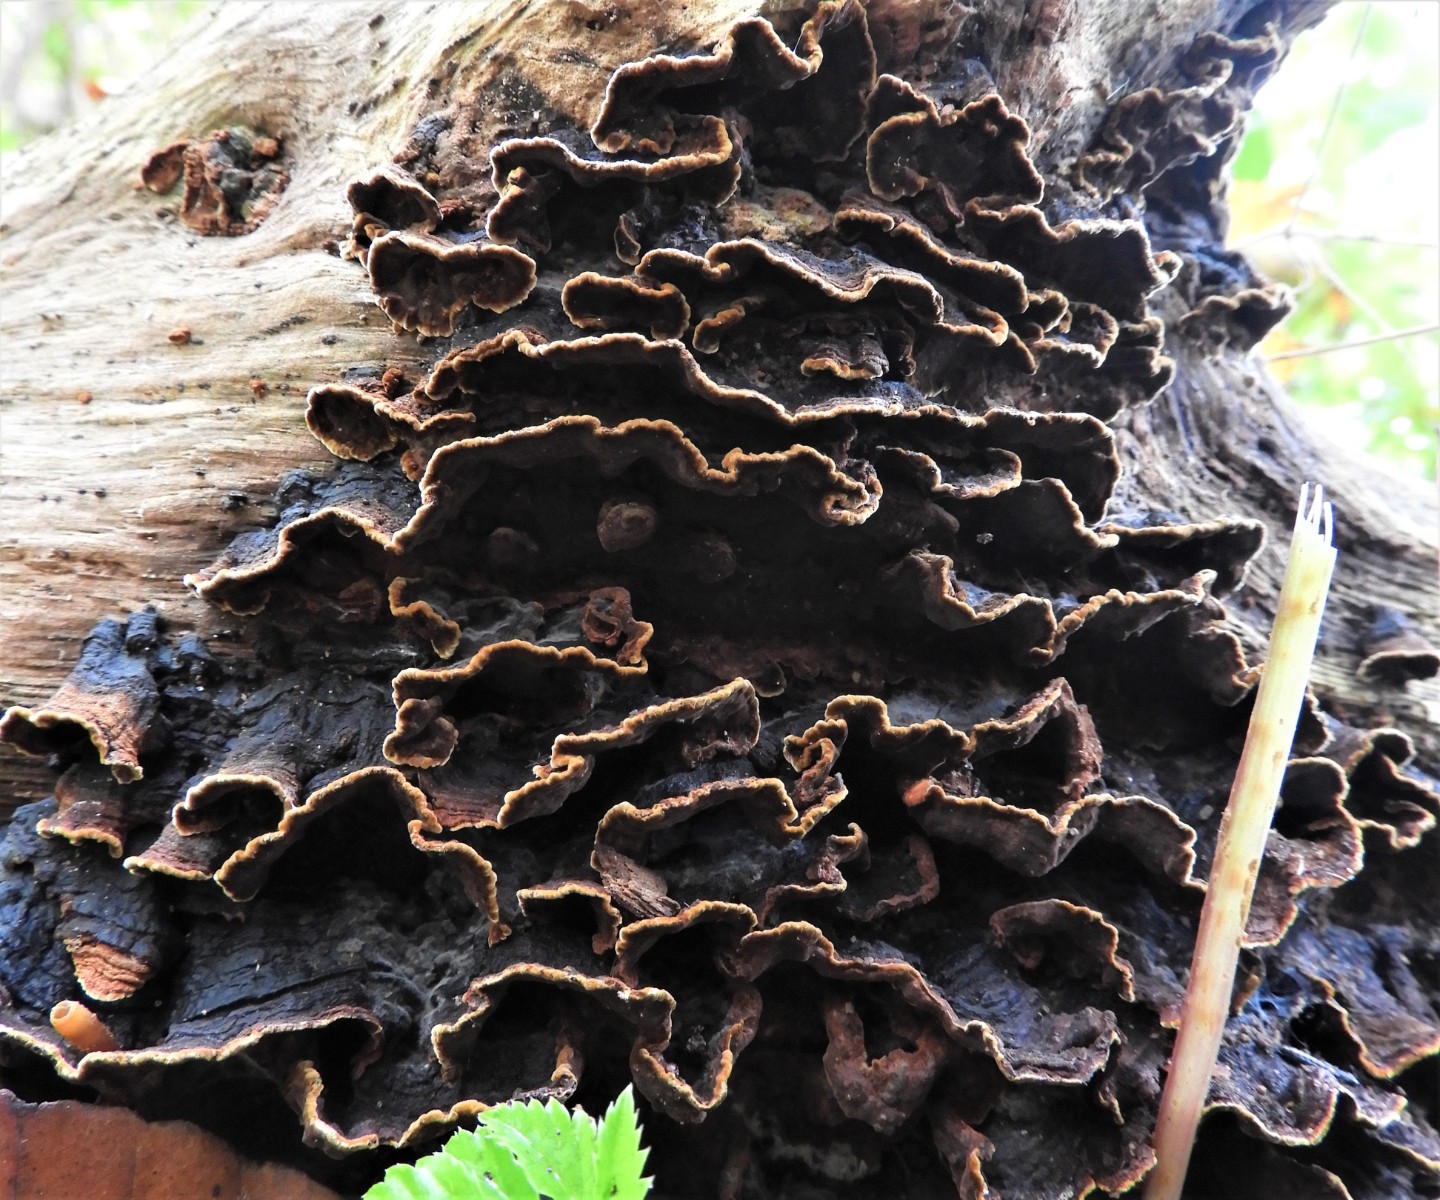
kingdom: Fungi
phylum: Basidiomycota
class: Agaricomycetes
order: Hymenochaetales
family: Hymenochaetaceae
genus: Hymenochaete
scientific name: Hymenochaete rubiginosa
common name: stiv ruslædersvamp
